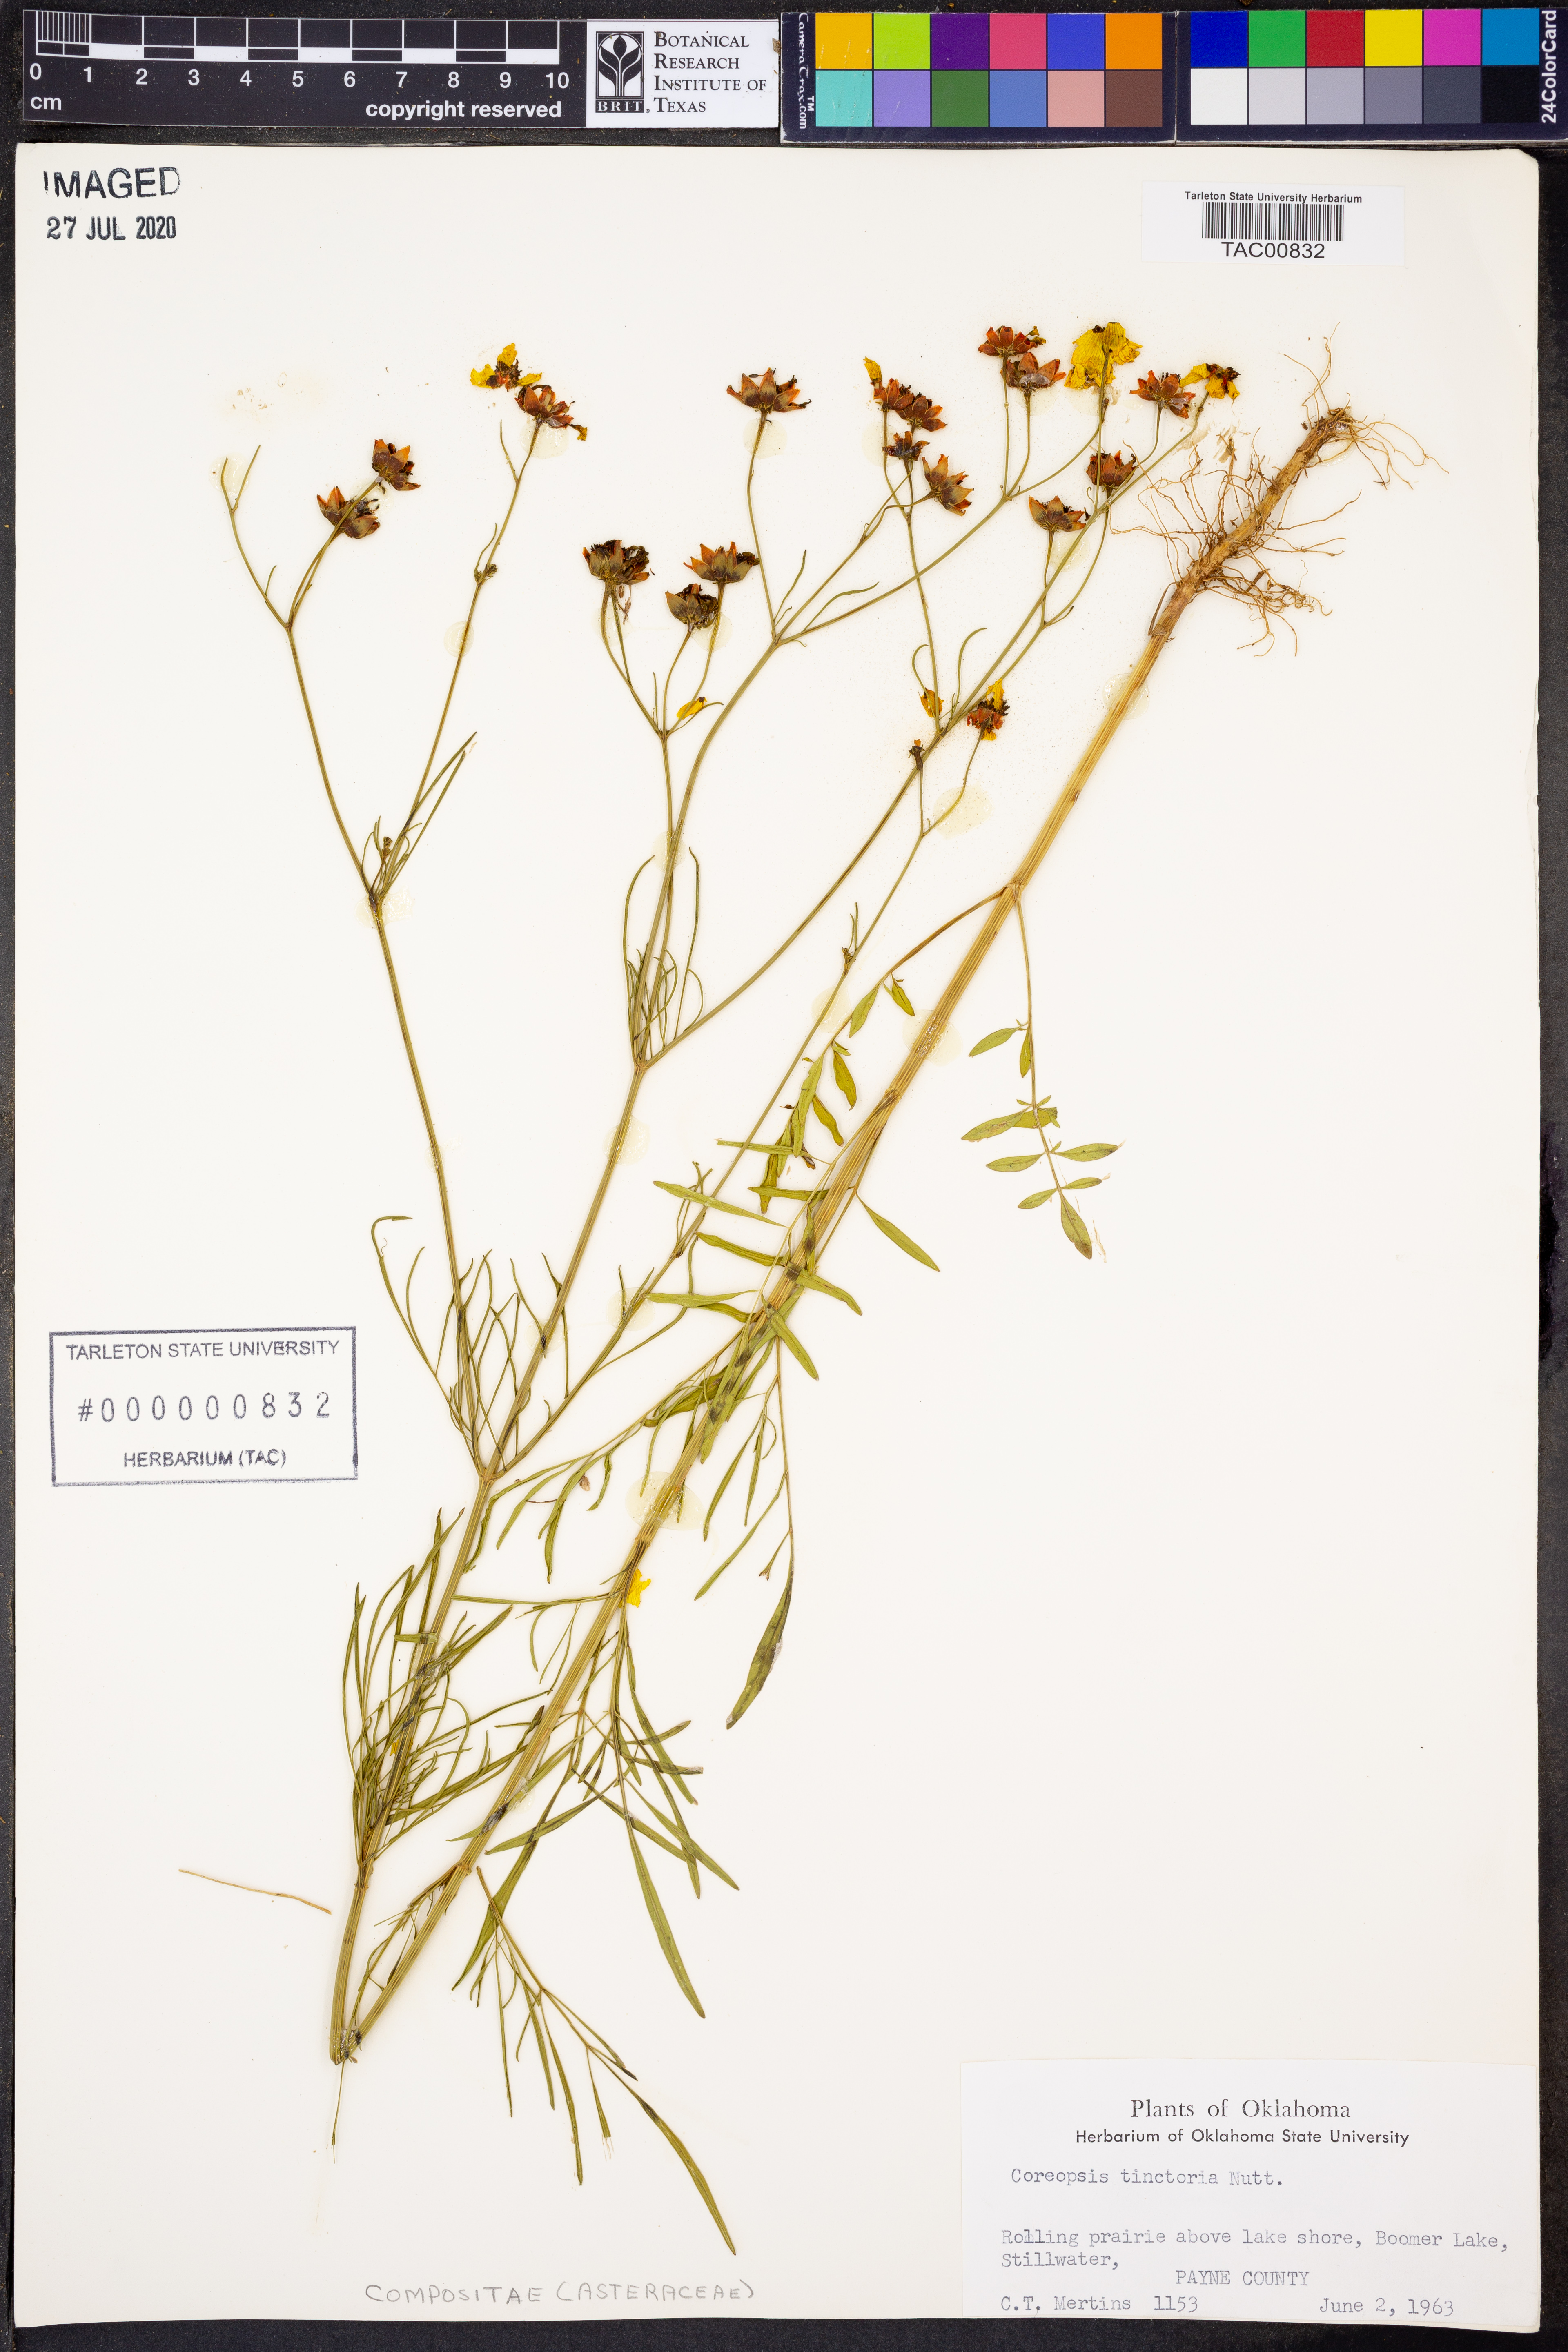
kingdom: Plantae
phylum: Tracheophyta
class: Magnoliopsida
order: Asterales
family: Asteraceae
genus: Coreopsis
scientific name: Coreopsis tinctoria
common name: Garden tickseed
